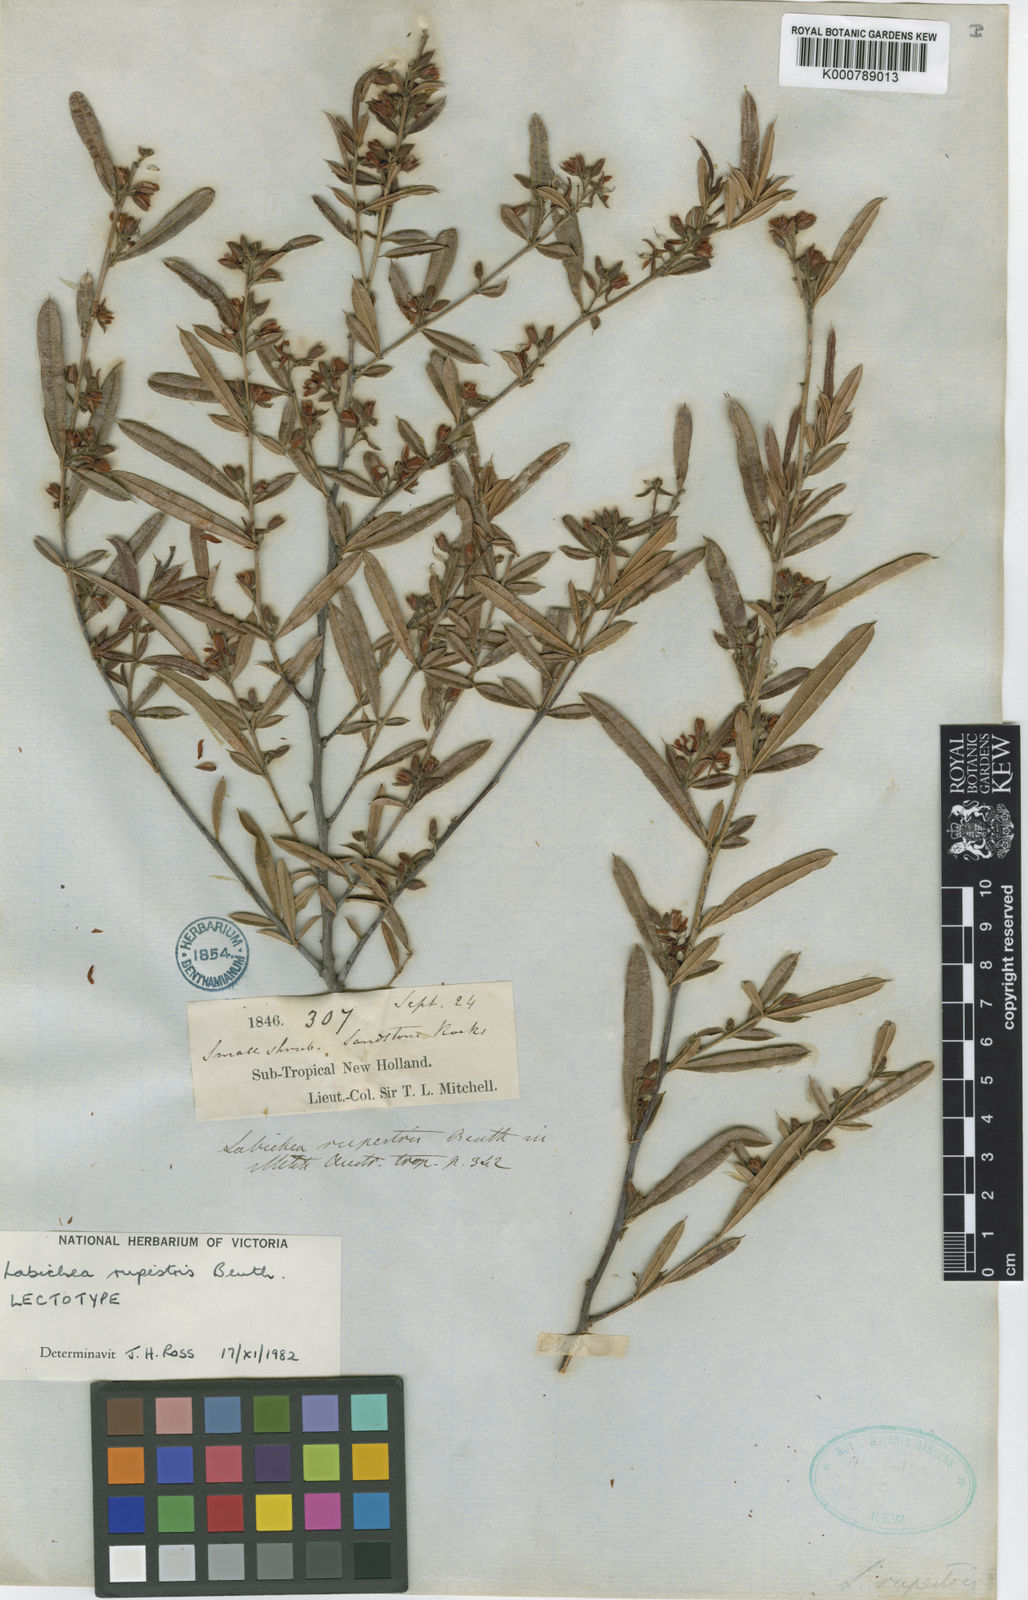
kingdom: Plantae
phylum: Tracheophyta
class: Magnoliopsida
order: Fabales
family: Fabaceae
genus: Labichea
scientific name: Labichea rupestris
